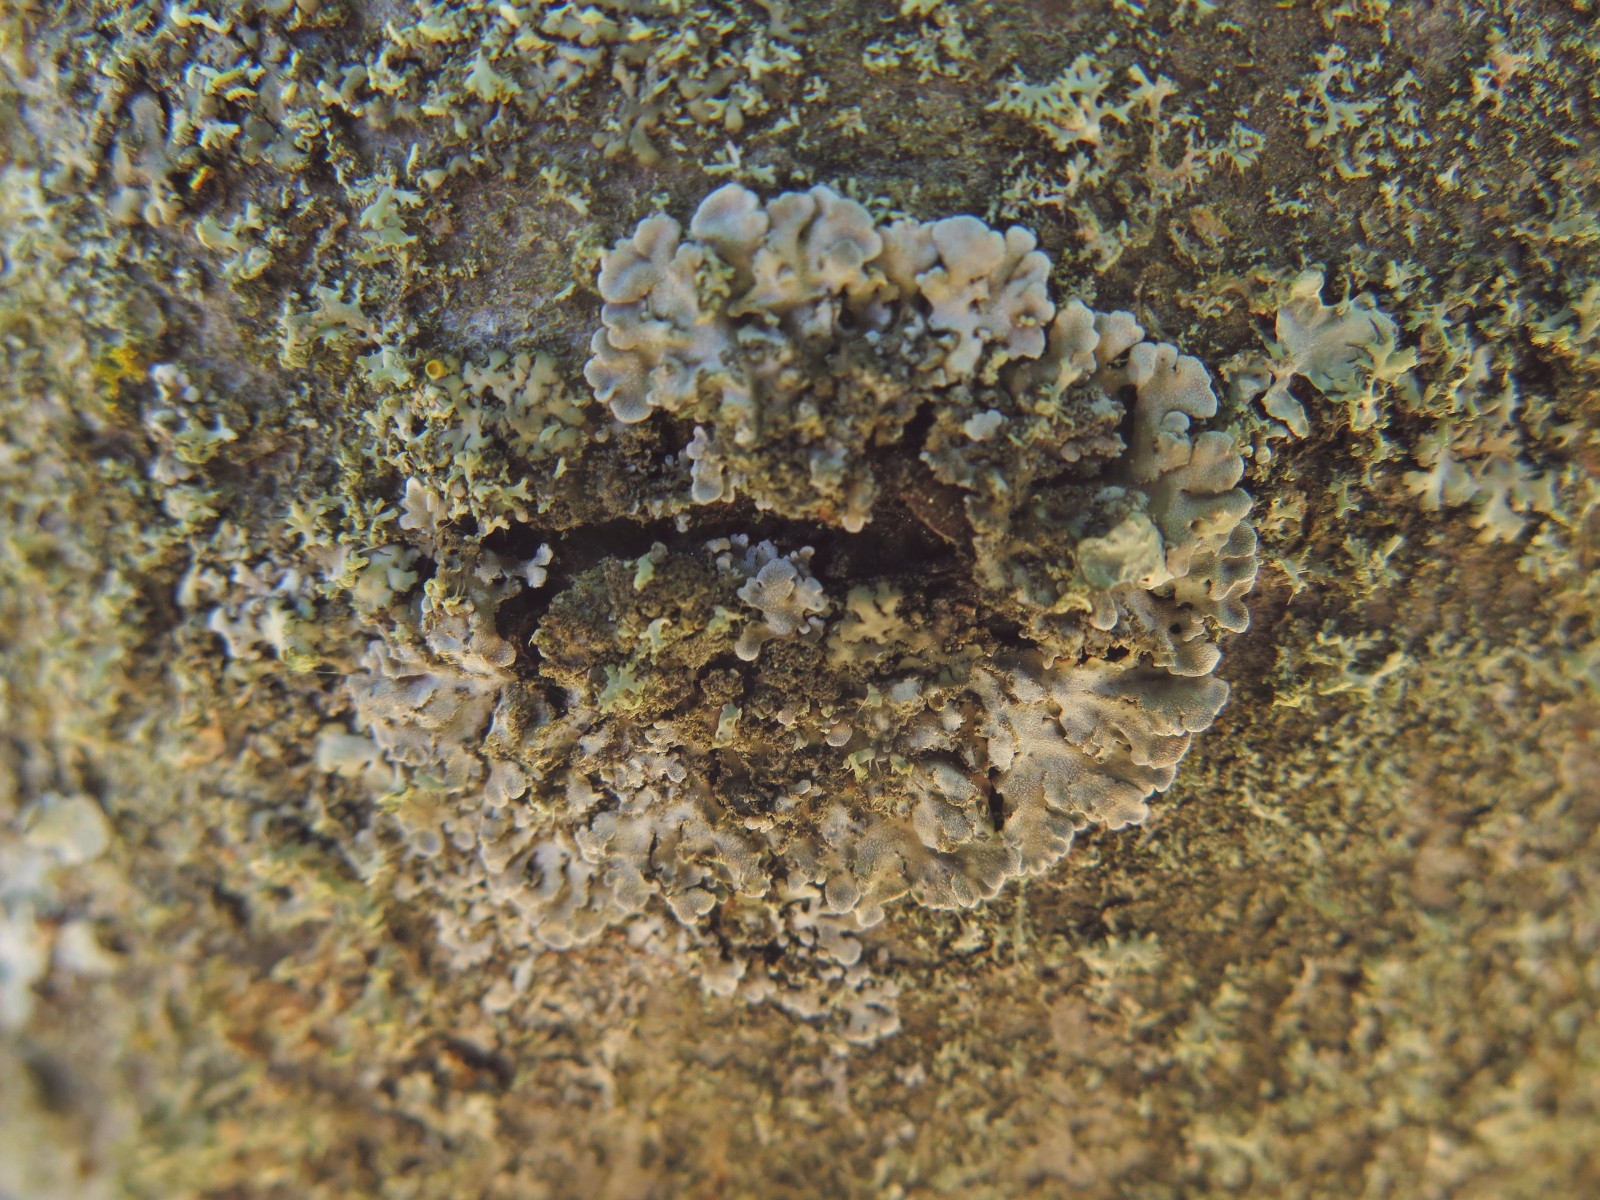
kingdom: Fungi
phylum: Ascomycota
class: Lecanoromycetes
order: Caliciales
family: Physciaceae
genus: Physconia
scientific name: Physconia
